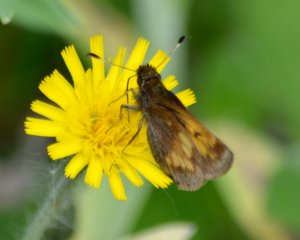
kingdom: Animalia
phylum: Arthropoda
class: Insecta
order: Lepidoptera
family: Hesperiidae
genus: Lon
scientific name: Lon hobomok
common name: Hobomok Skipper
